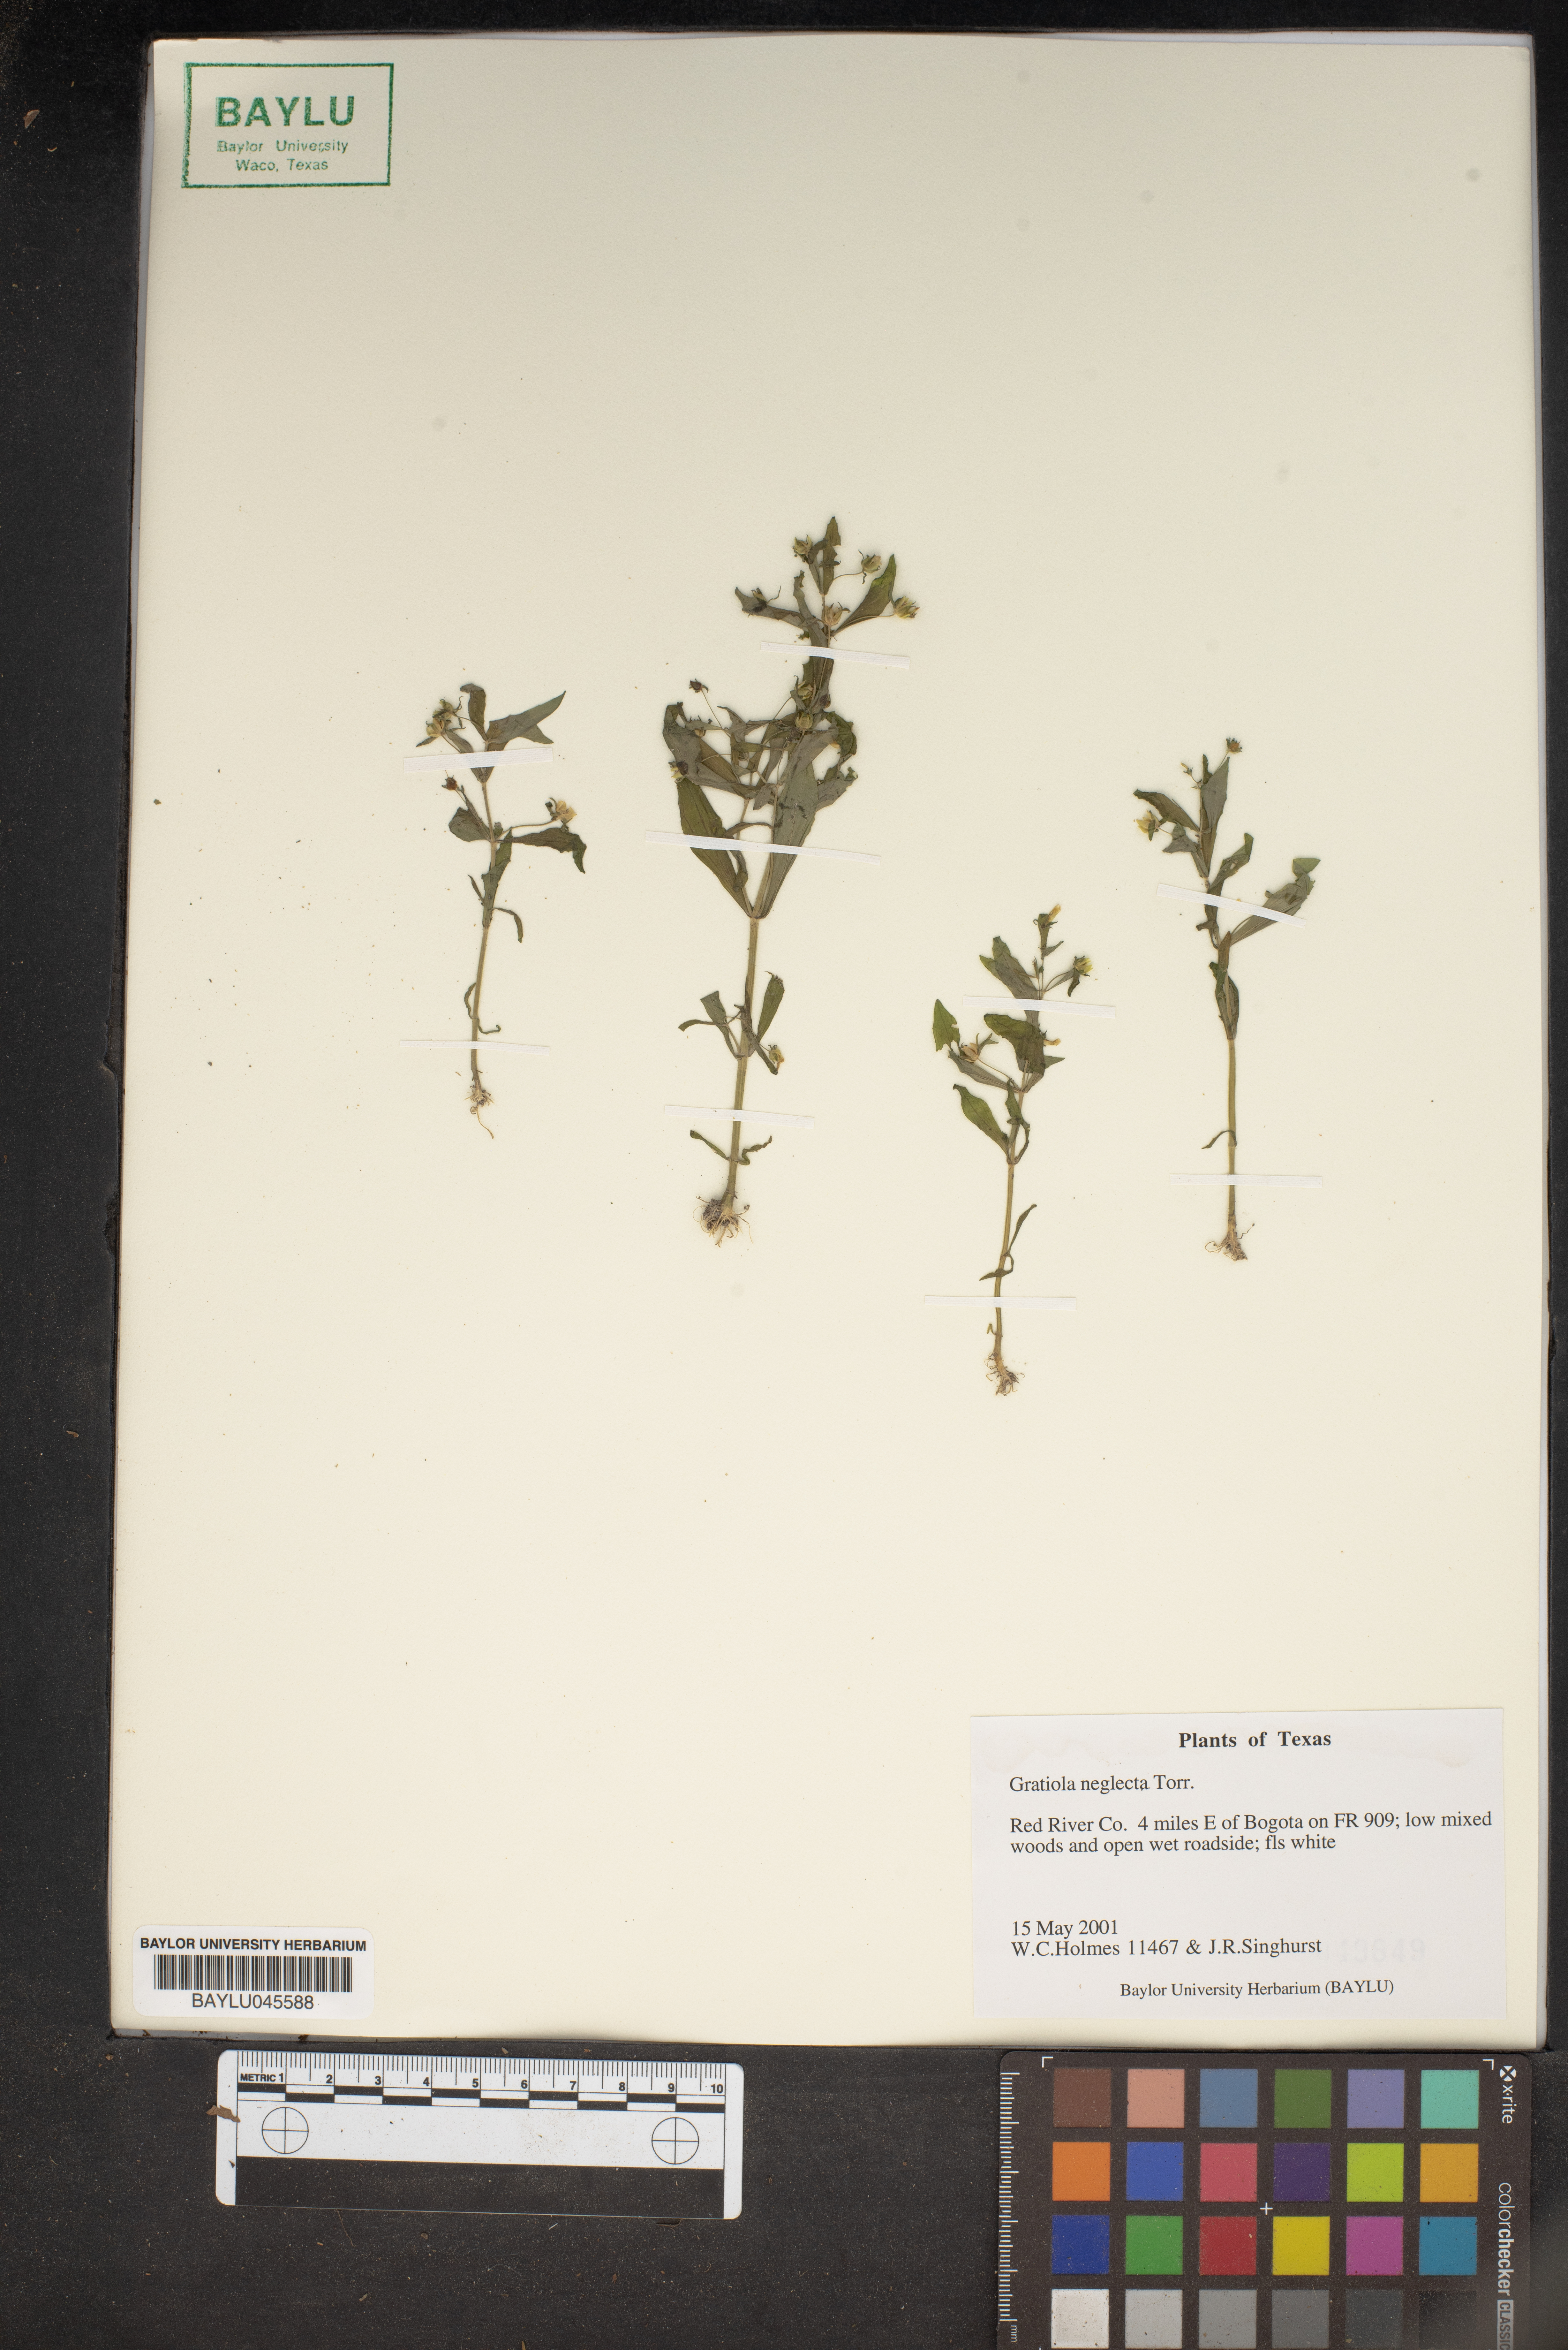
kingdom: Plantae
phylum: Tracheophyta
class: Magnoliopsida
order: Lamiales
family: Plantaginaceae
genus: Gratiola
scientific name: Gratiola neglecta
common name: American hedge-hyssop
